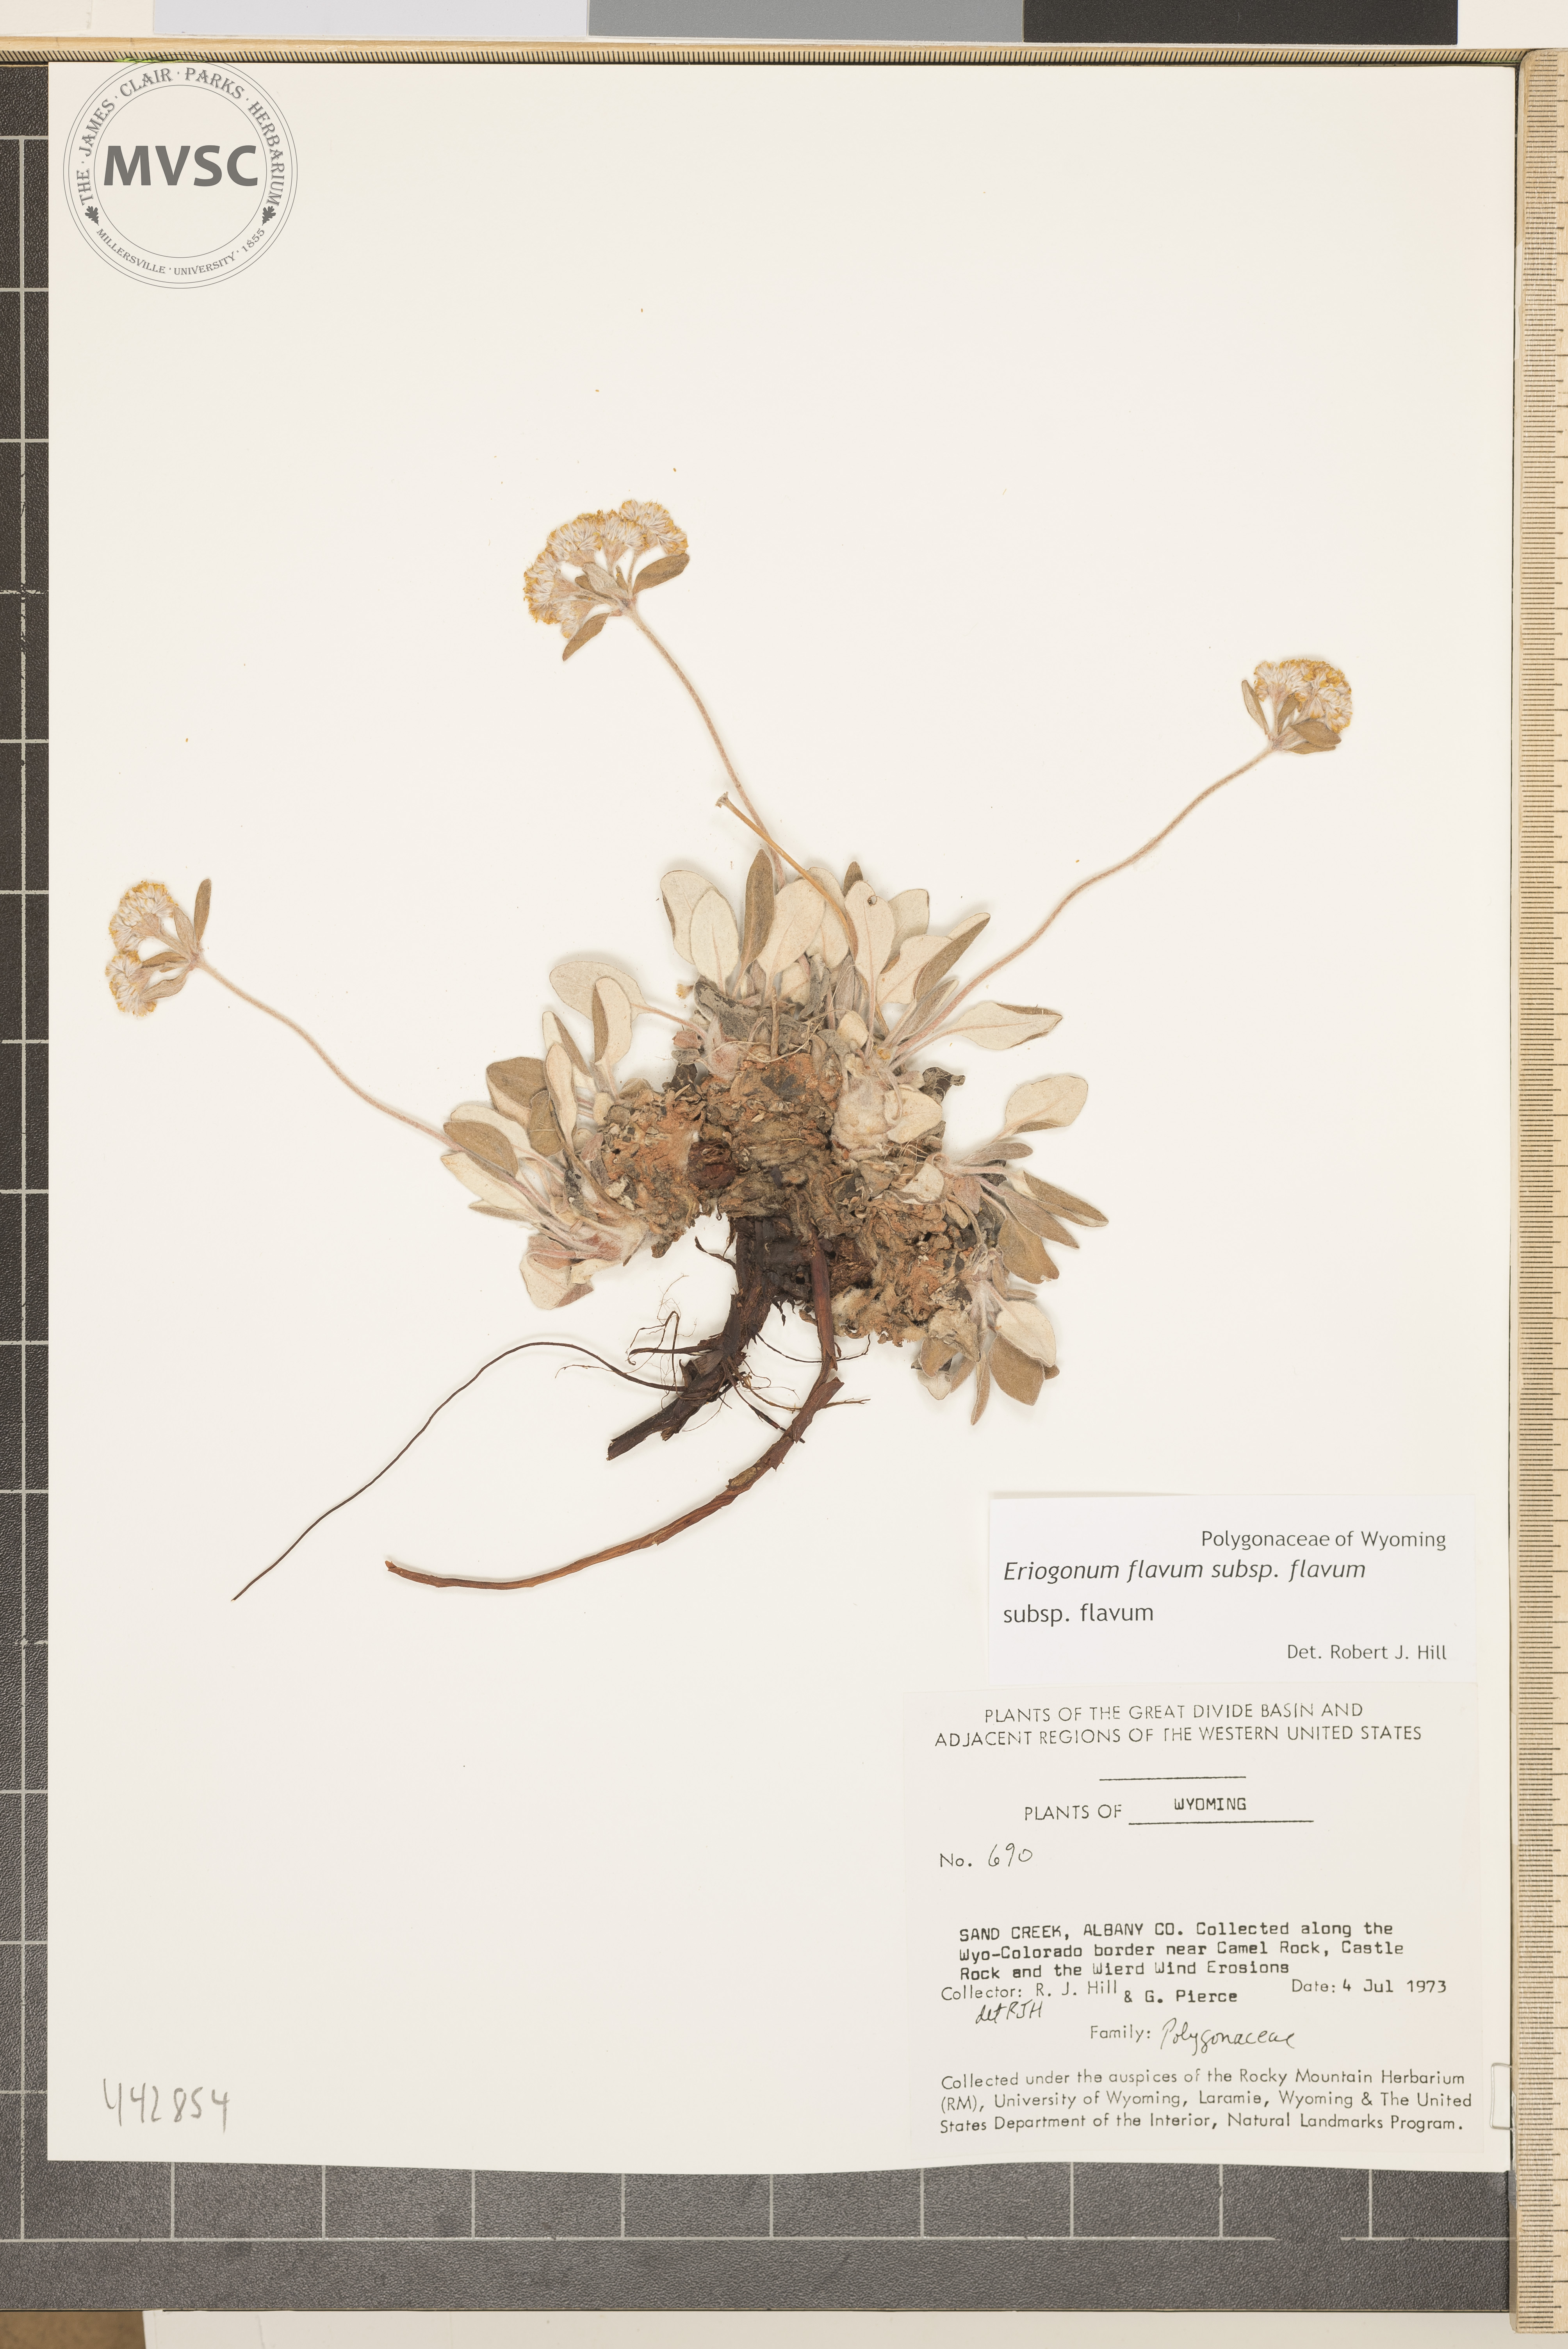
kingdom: Plantae
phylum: Tracheophyta
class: Magnoliopsida
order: Caryophyllales
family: Polygonaceae
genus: Eriogonum
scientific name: Eriogonum flavum
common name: Alpine golden wild buckwheat
